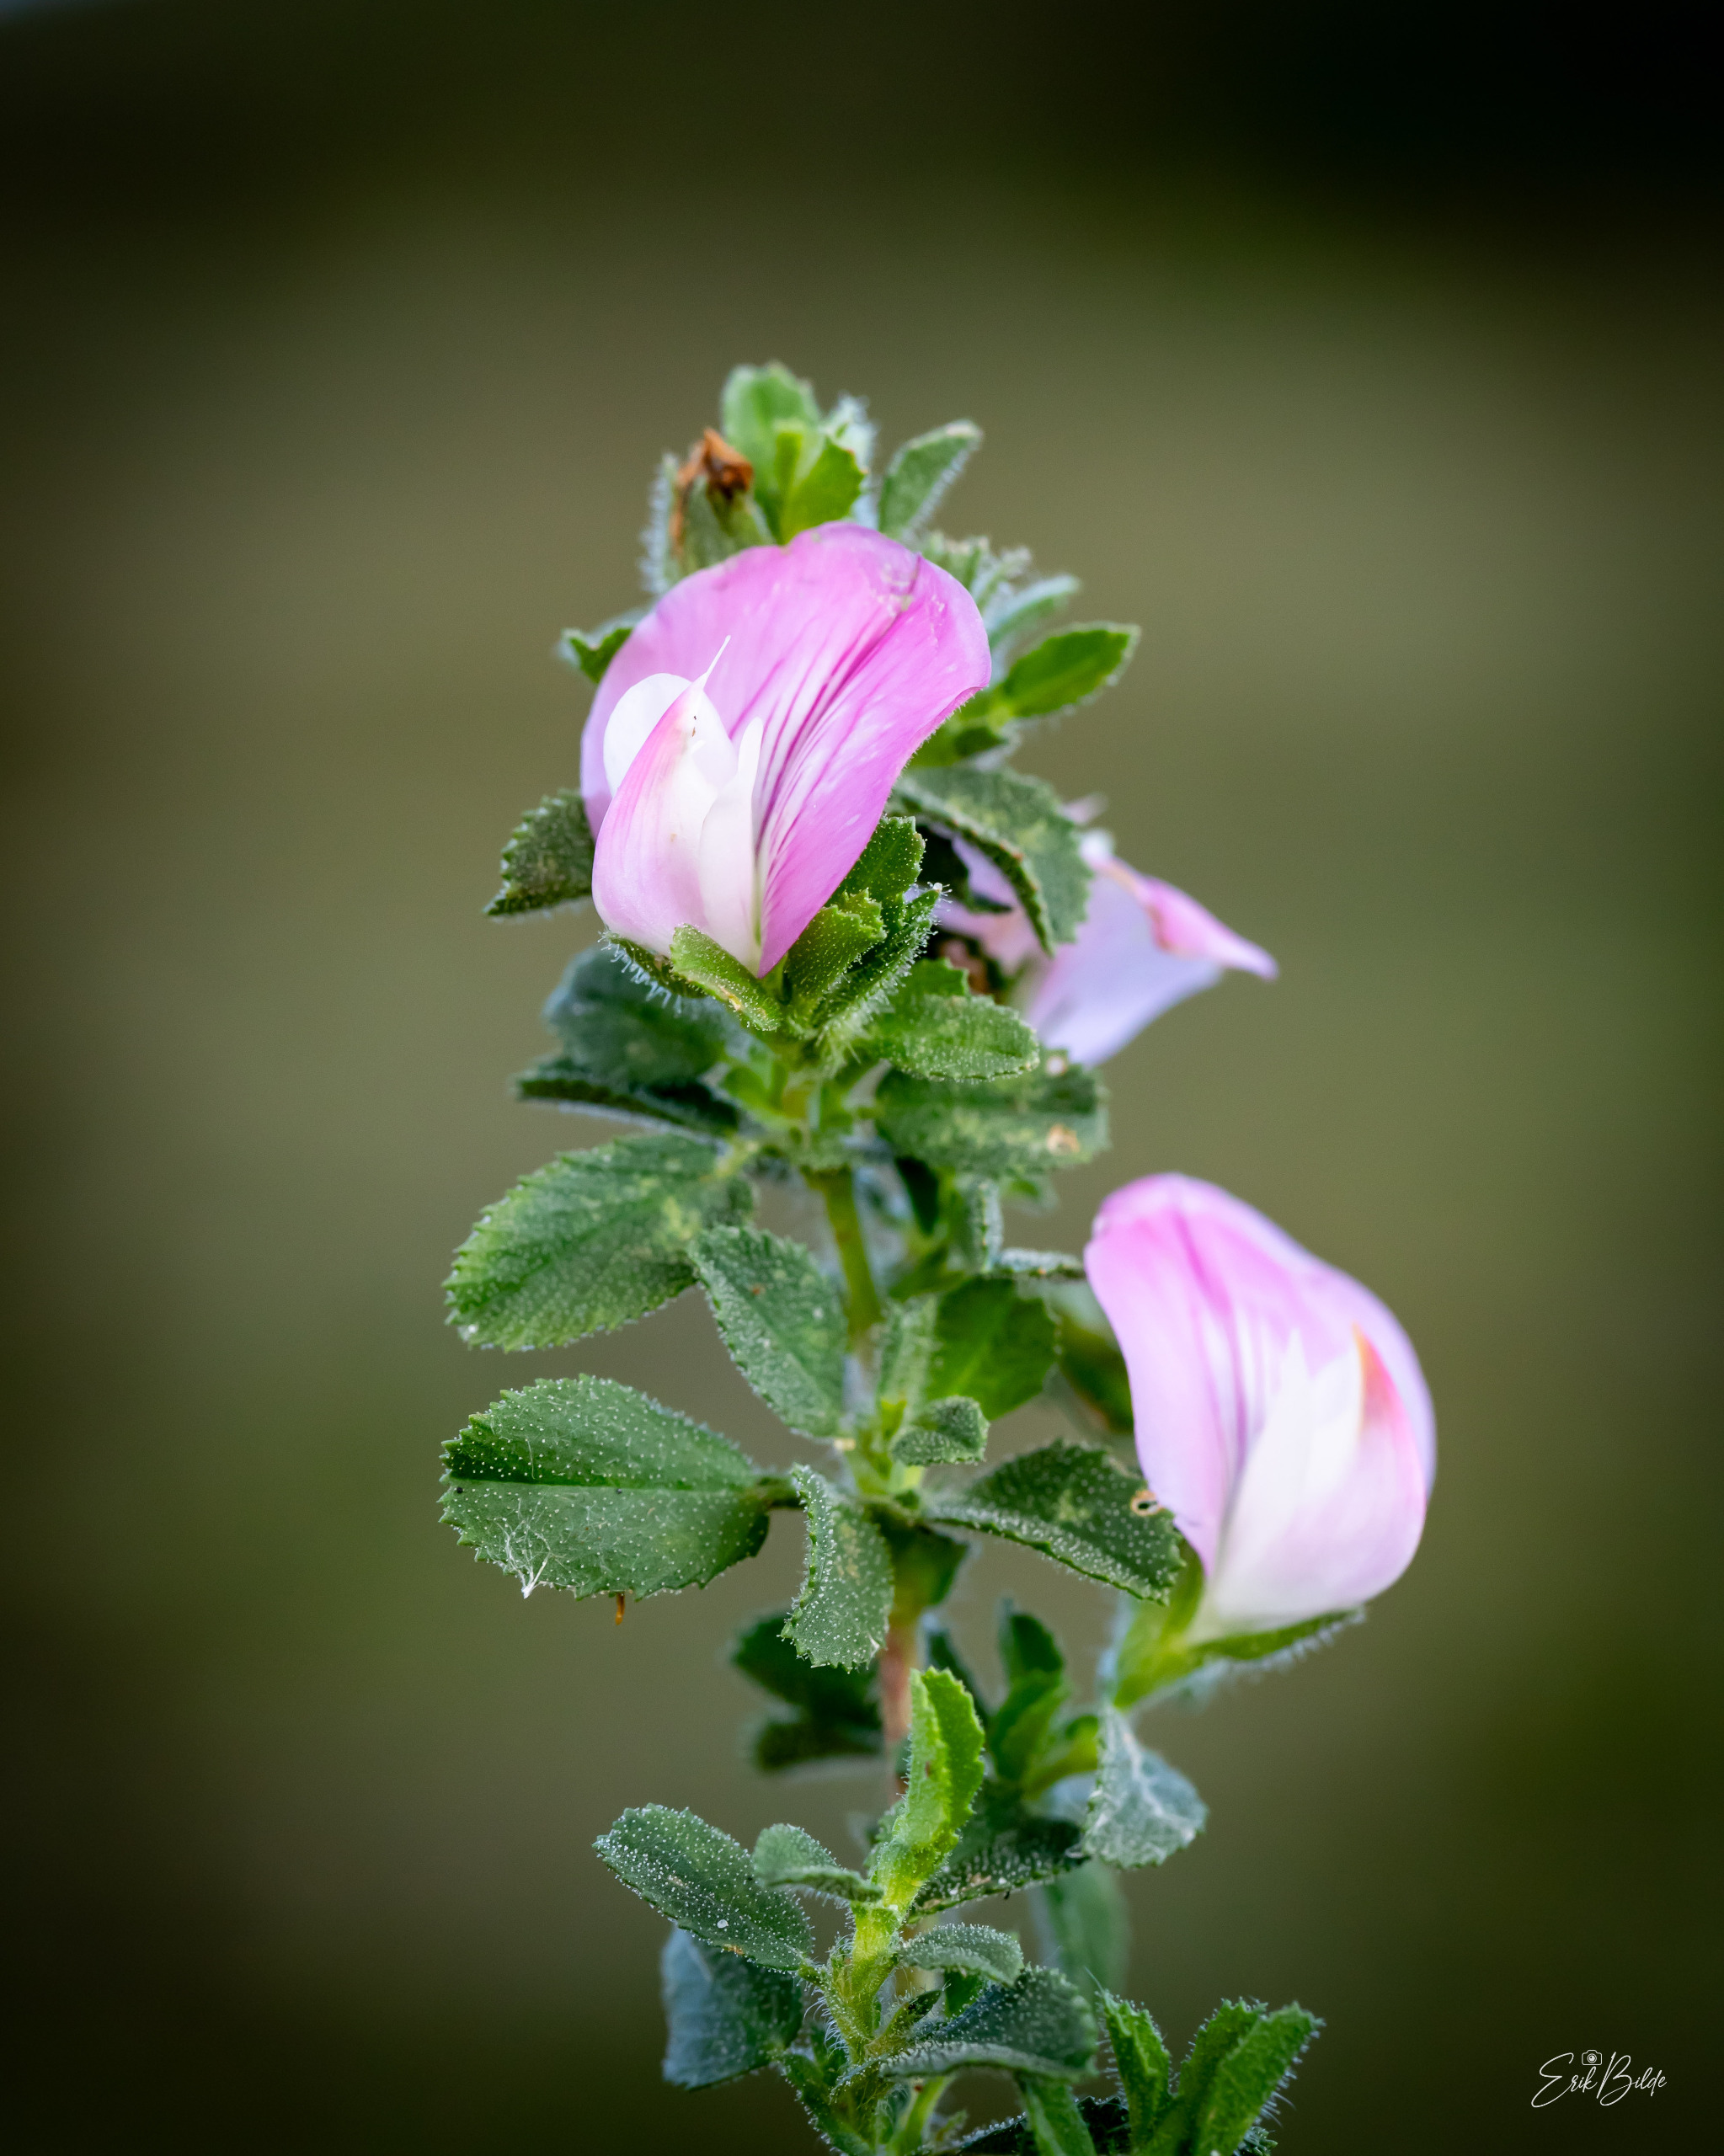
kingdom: Plantae
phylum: Tracheophyta
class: Magnoliopsida
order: Fabales
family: Fabaceae
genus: Ononis
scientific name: Ononis spinosa
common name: Mark-krageklo
